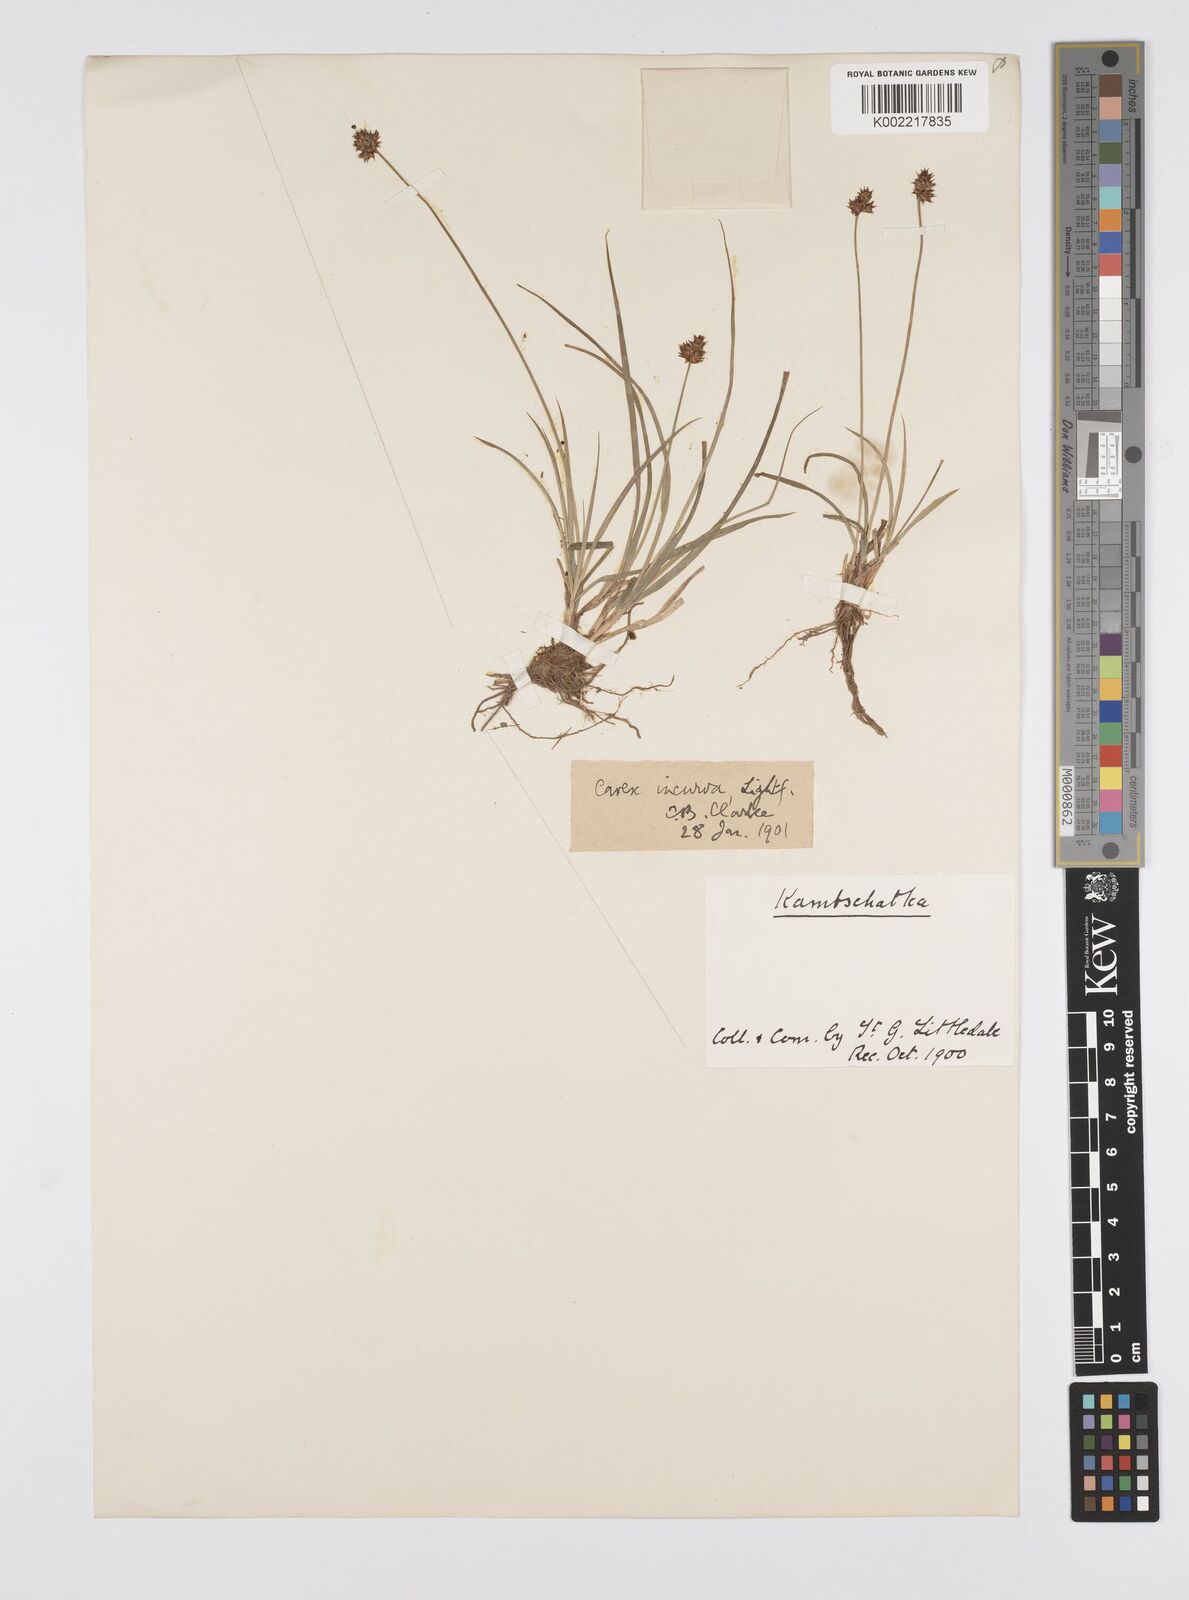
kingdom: Plantae
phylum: Tracheophyta
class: Liliopsida
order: Poales
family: Cyperaceae
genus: Carex
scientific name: Carex maritima
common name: Curved sedge
